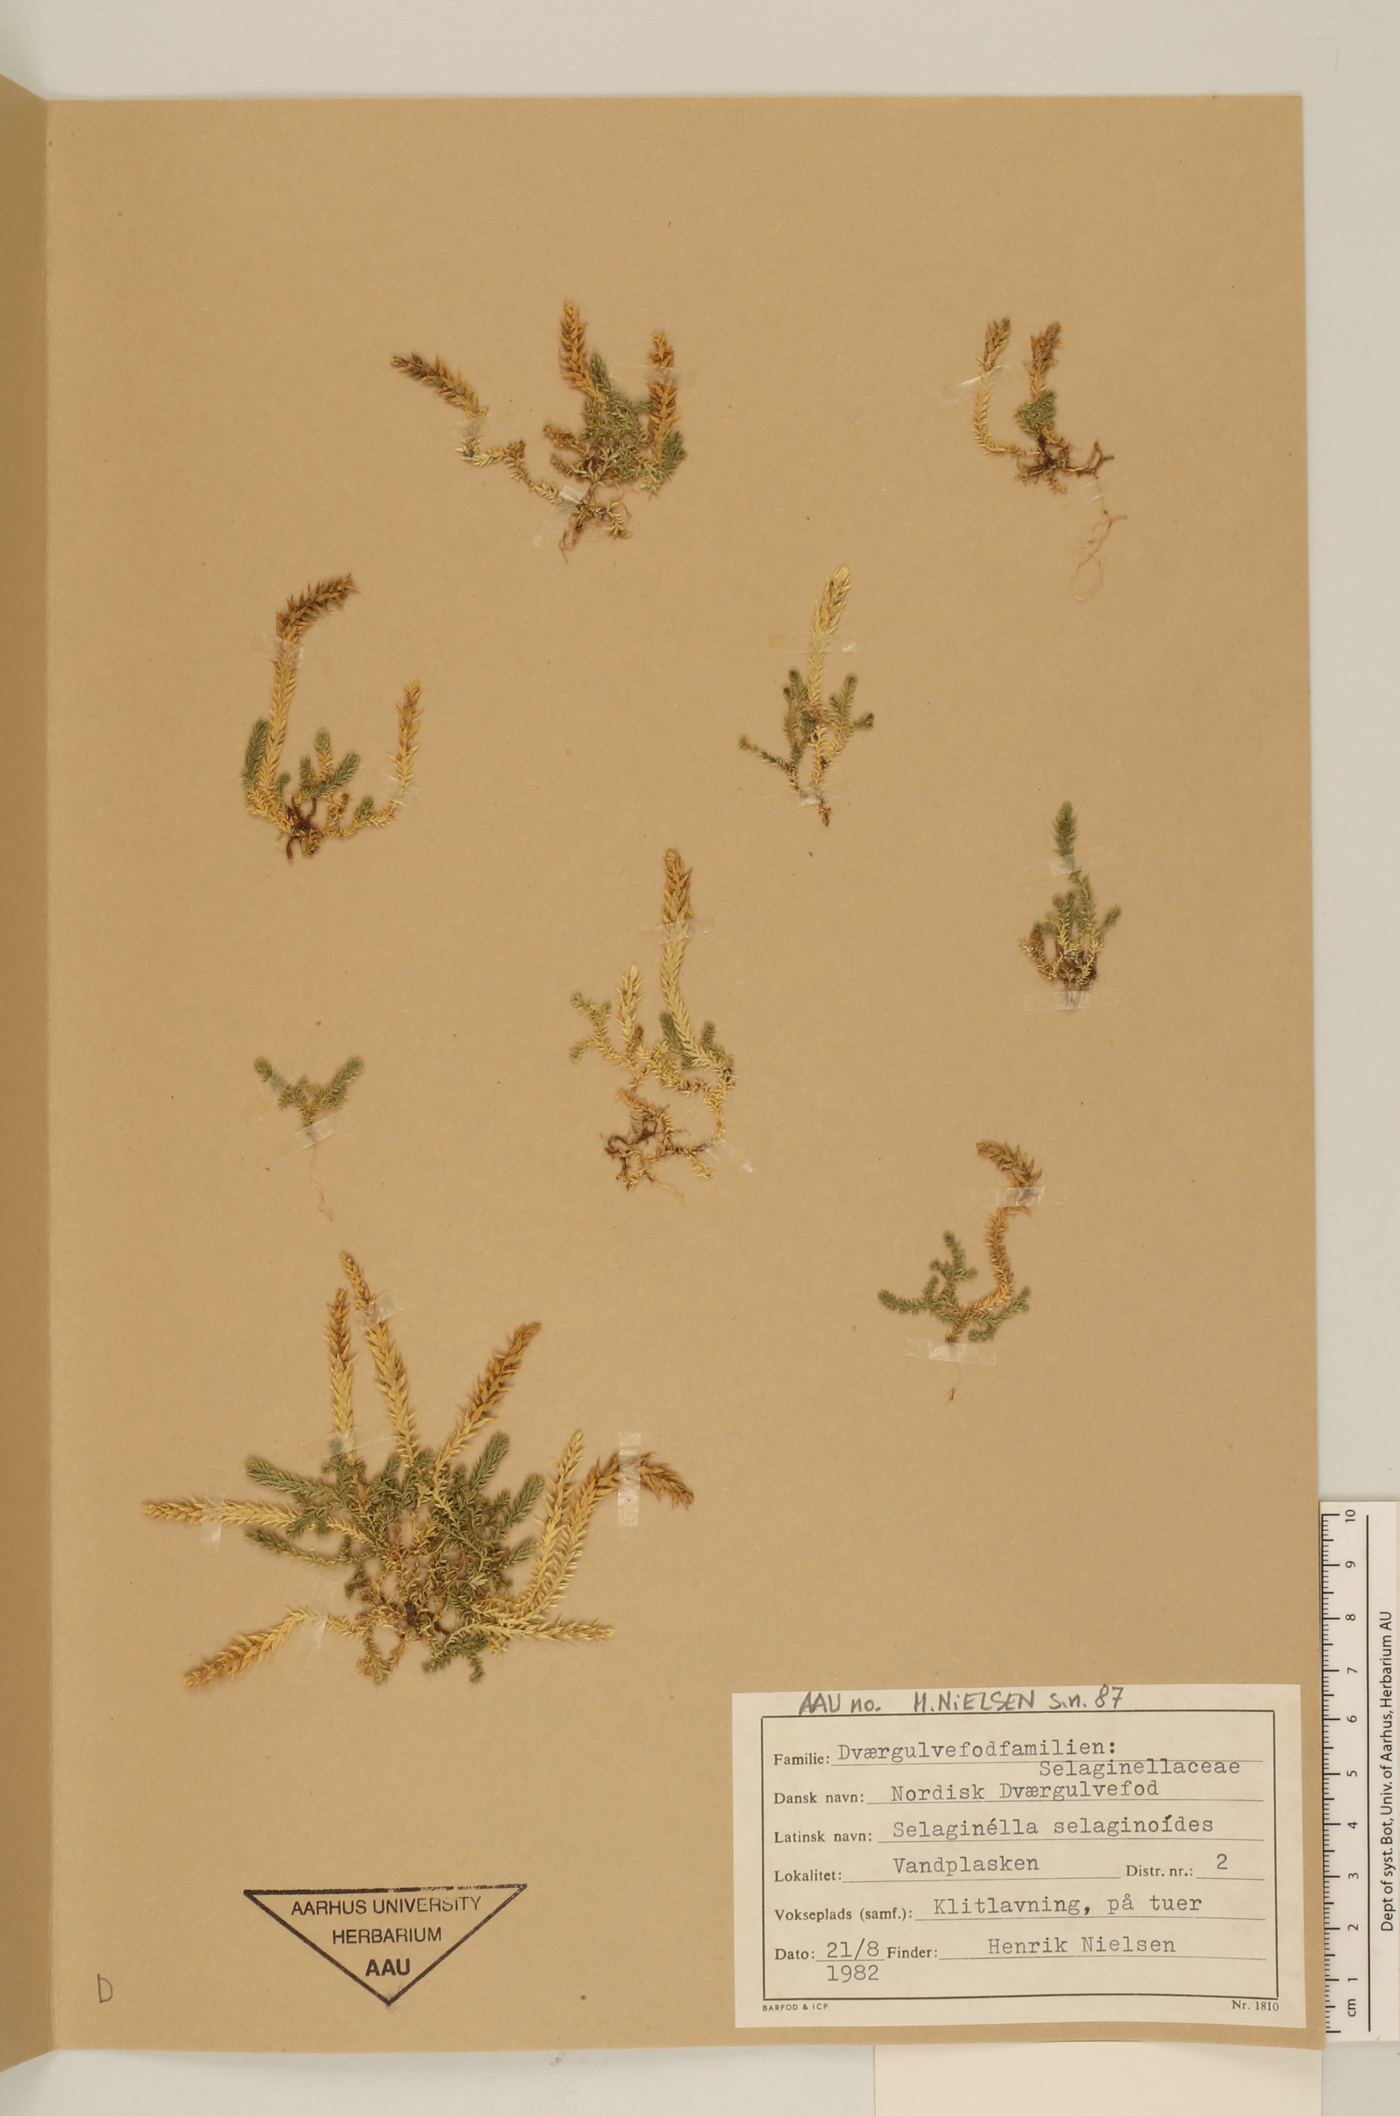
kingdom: Plantae
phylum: Tracheophyta
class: Lycopodiopsida
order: Selaginellales
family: Selaginellaceae
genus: Selaginella
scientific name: Selaginella selaginoides
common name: Prickly mountain-moss
